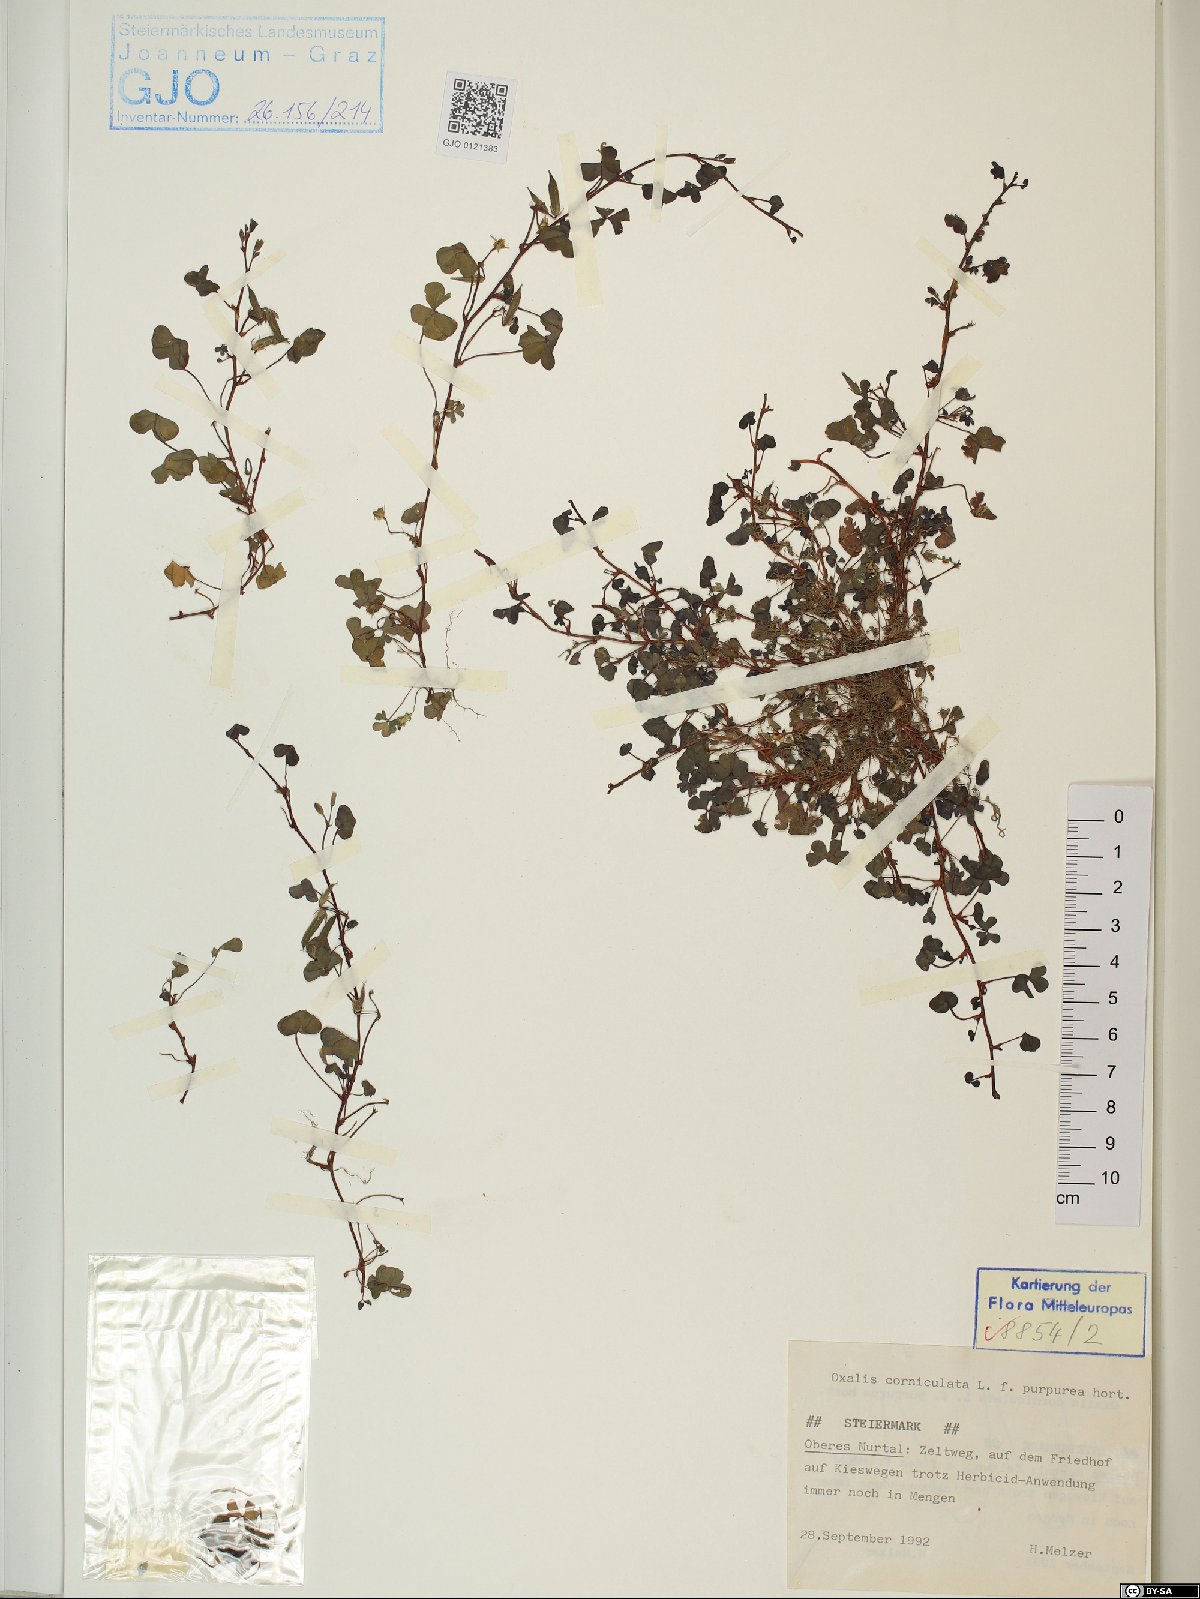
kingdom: Plantae
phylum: Tracheophyta
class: Magnoliopsida
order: Oxalidales
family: Oxalidaceae
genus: Oxalis
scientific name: Oxalis corniculata
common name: Procumbent yellow-sorrel
